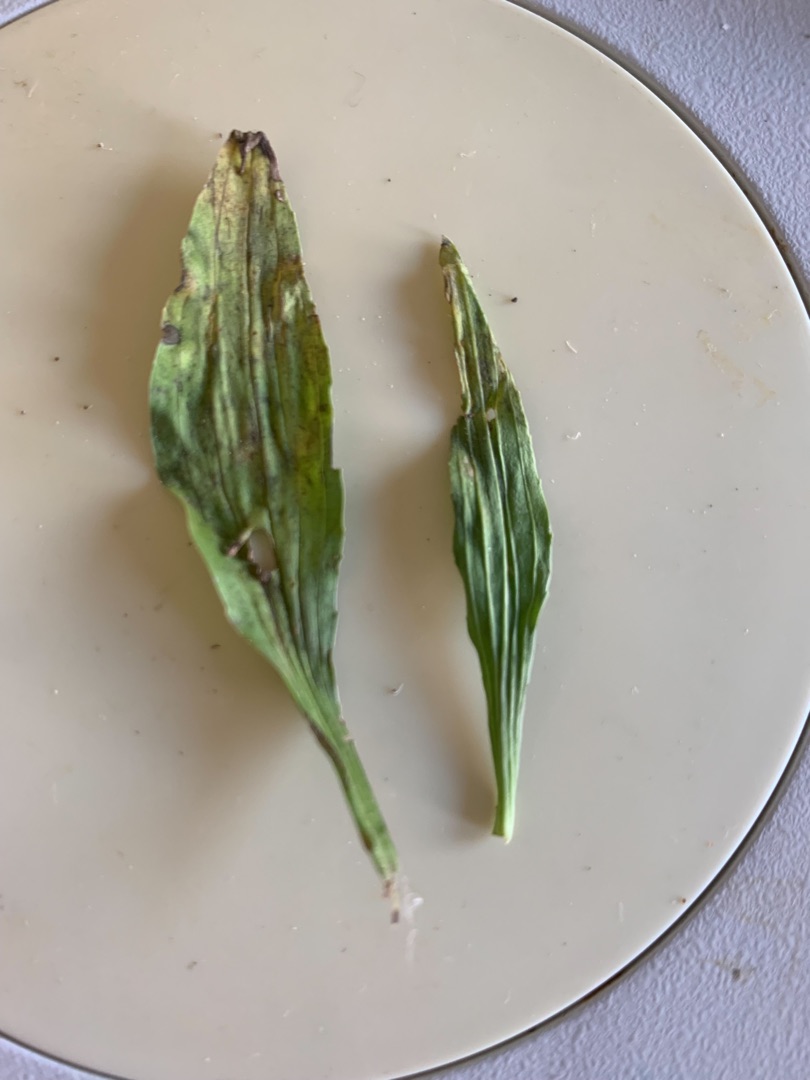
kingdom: Plantae
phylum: Tracheophyta
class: Magnoliopsida
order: Lamiales
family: Plantaginaceae
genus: Plantago
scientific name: Plantago lanceolata
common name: Lancet-vejbred
